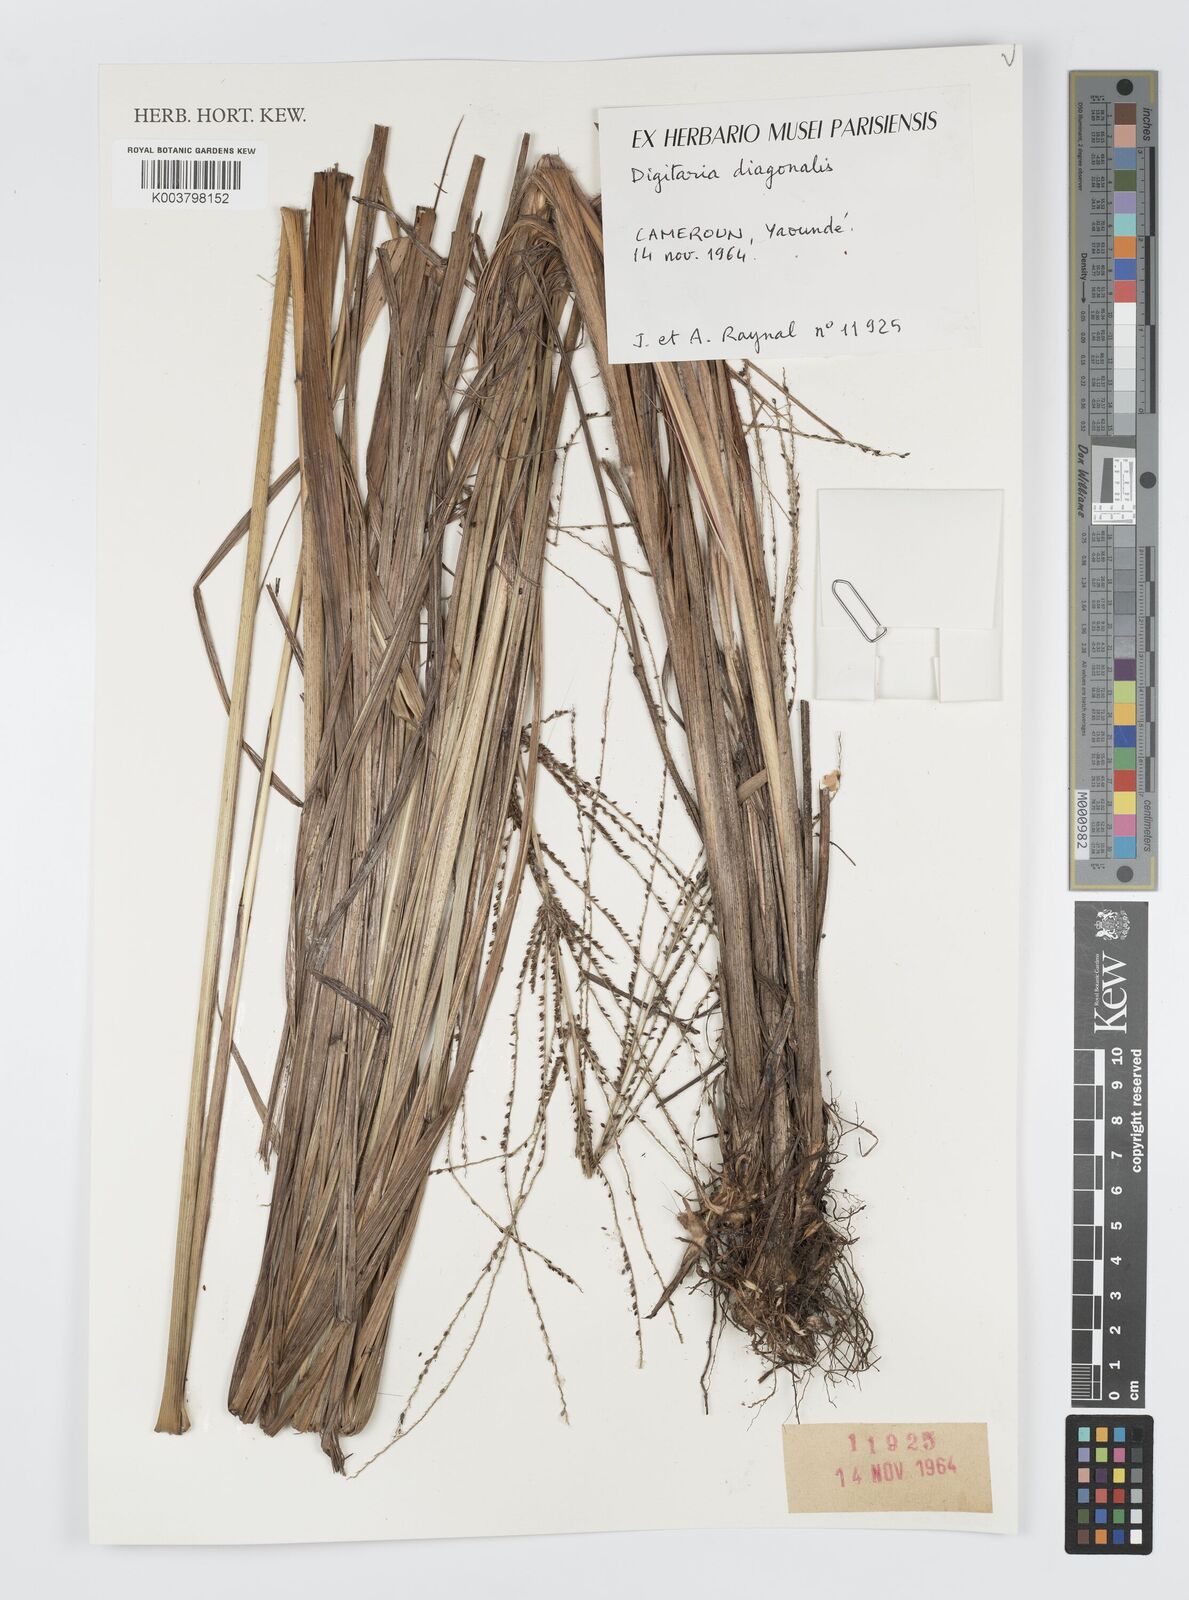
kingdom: Plantae
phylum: Tracheophyta
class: Liliopsida
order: Poales
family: Poaceae
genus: Digitaria
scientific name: Digitaria diagonalis
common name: Brown-seed finger grass
